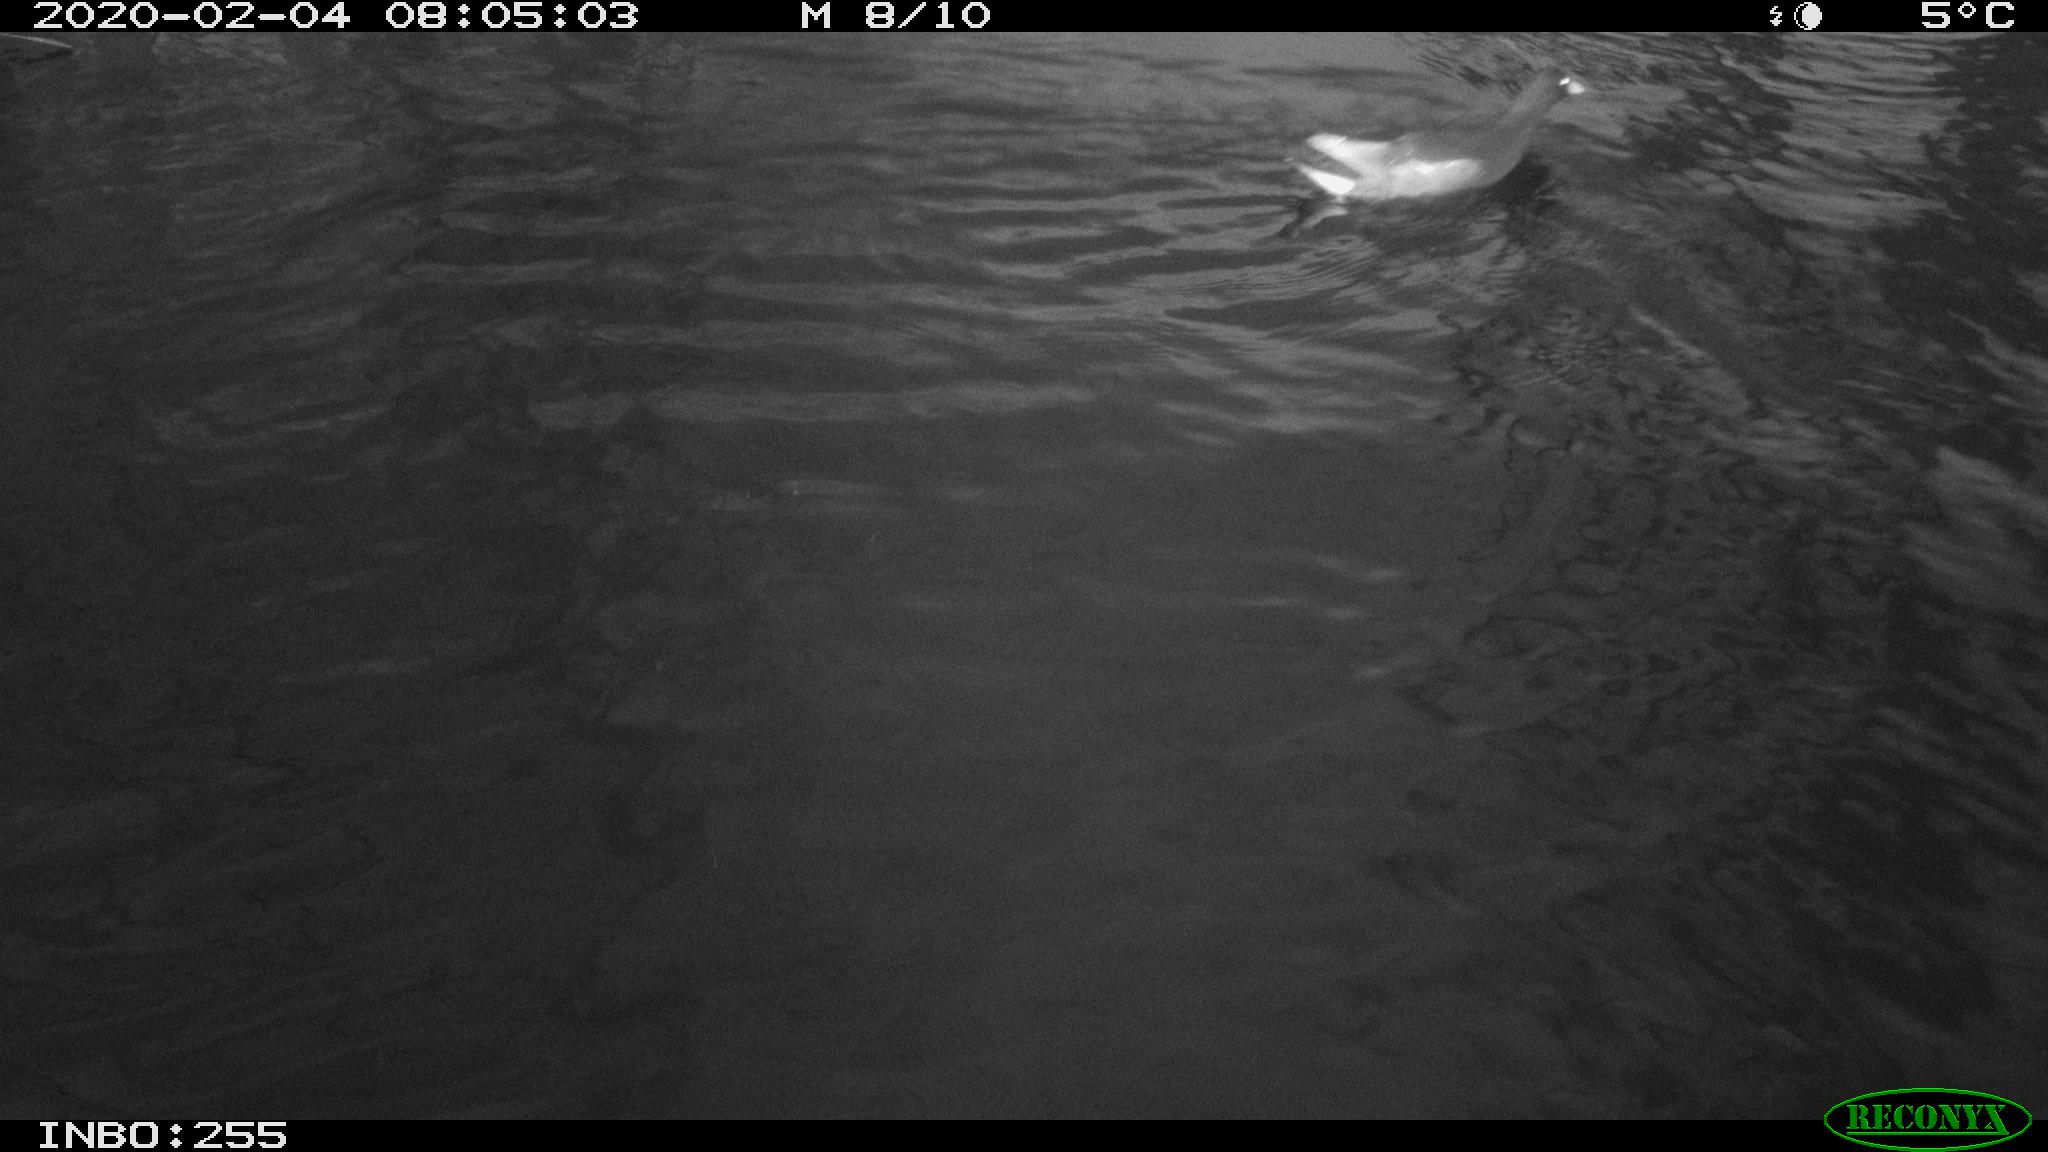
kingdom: Animalia
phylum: Chordata
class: Aves
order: Gruiformes
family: Rallidae
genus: Gallinula
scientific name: Gallinula chloropus
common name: Common moorhen
